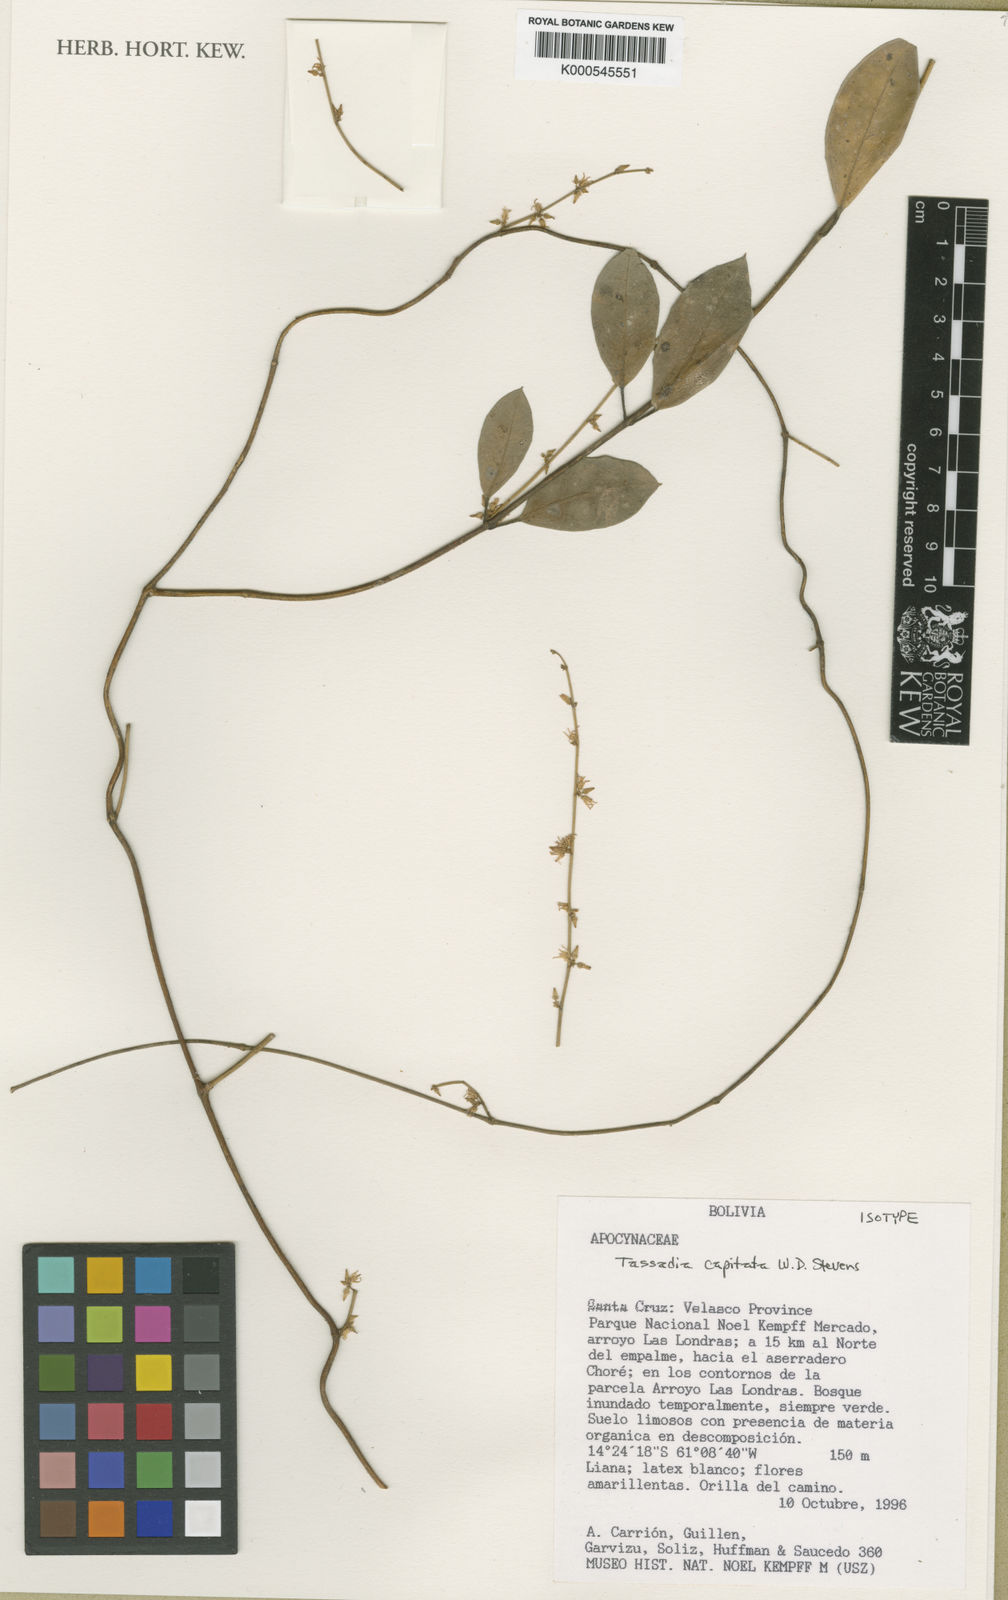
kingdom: Plantae
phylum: Tracheophyta
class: Magnoliopsida
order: Gentianales
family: Apocynaceae
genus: Tassadia
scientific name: Tassadia capitata
